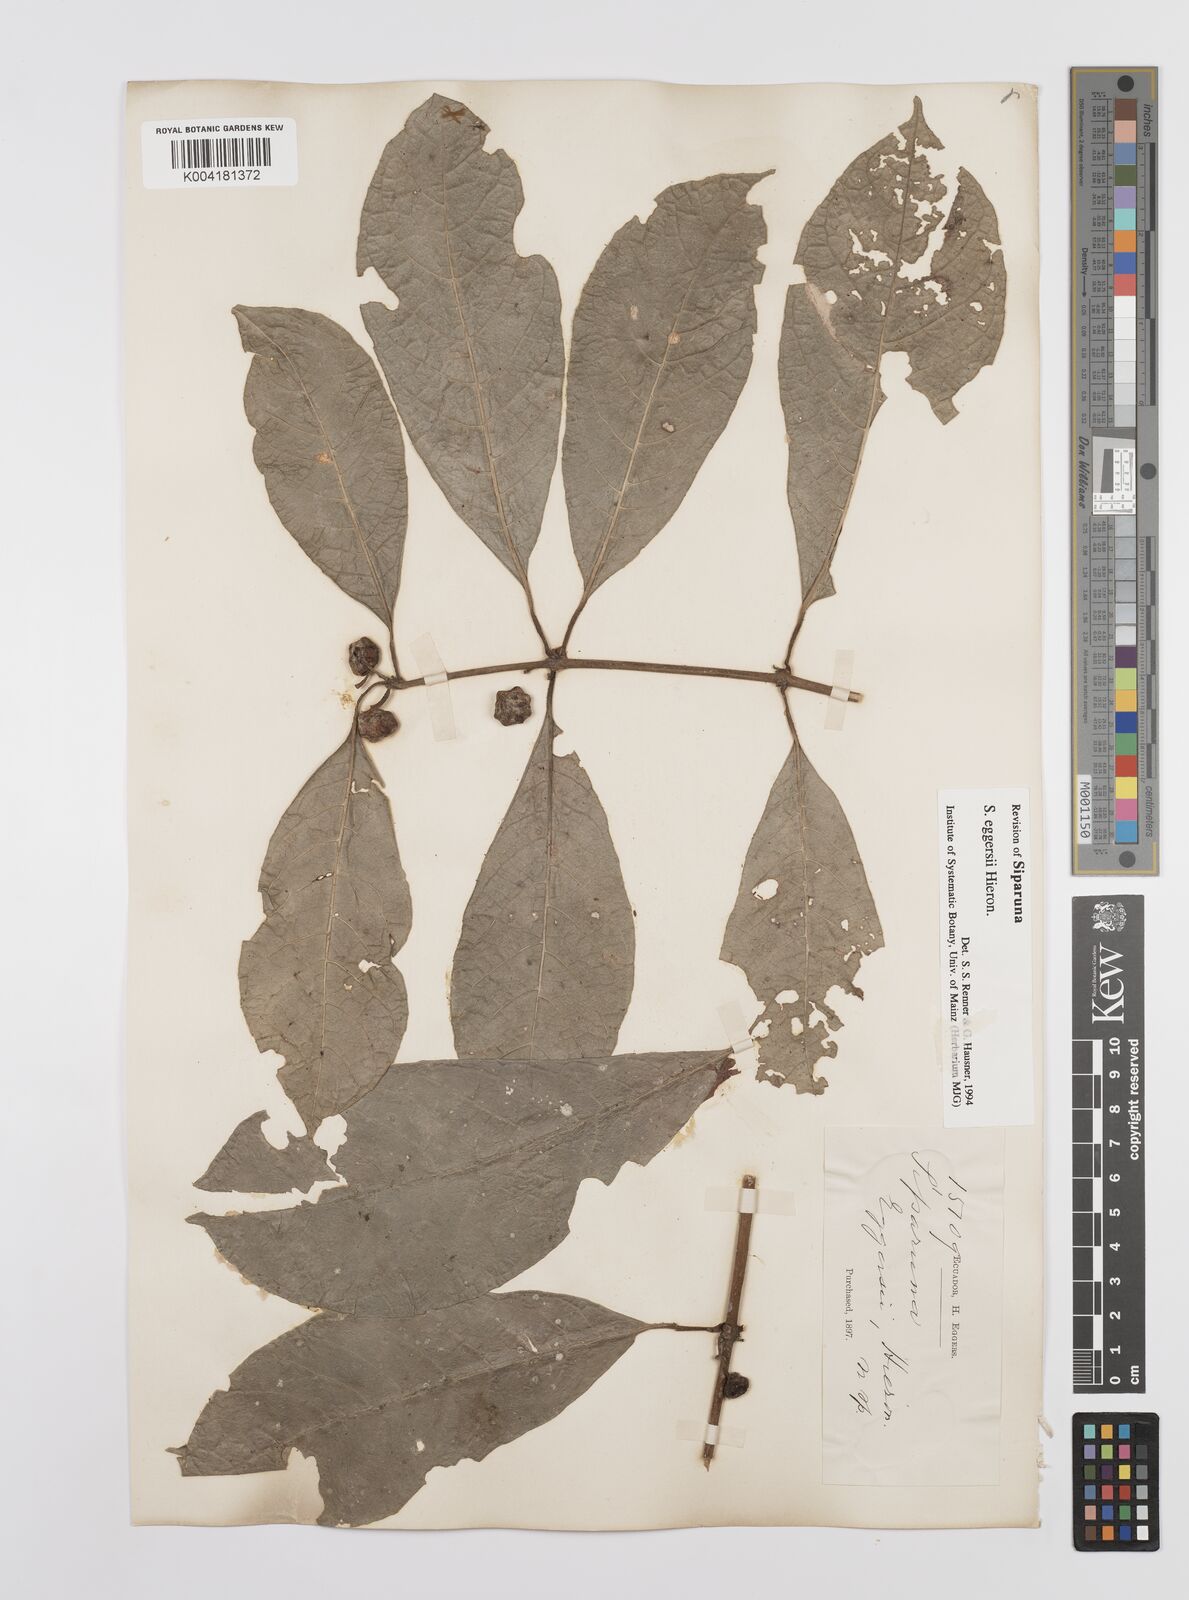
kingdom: Plantae
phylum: Tracheophyta
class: Magnoliopsida
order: Laurales
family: Siparunaceae
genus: Siparuna
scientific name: Siparuna eggersii
